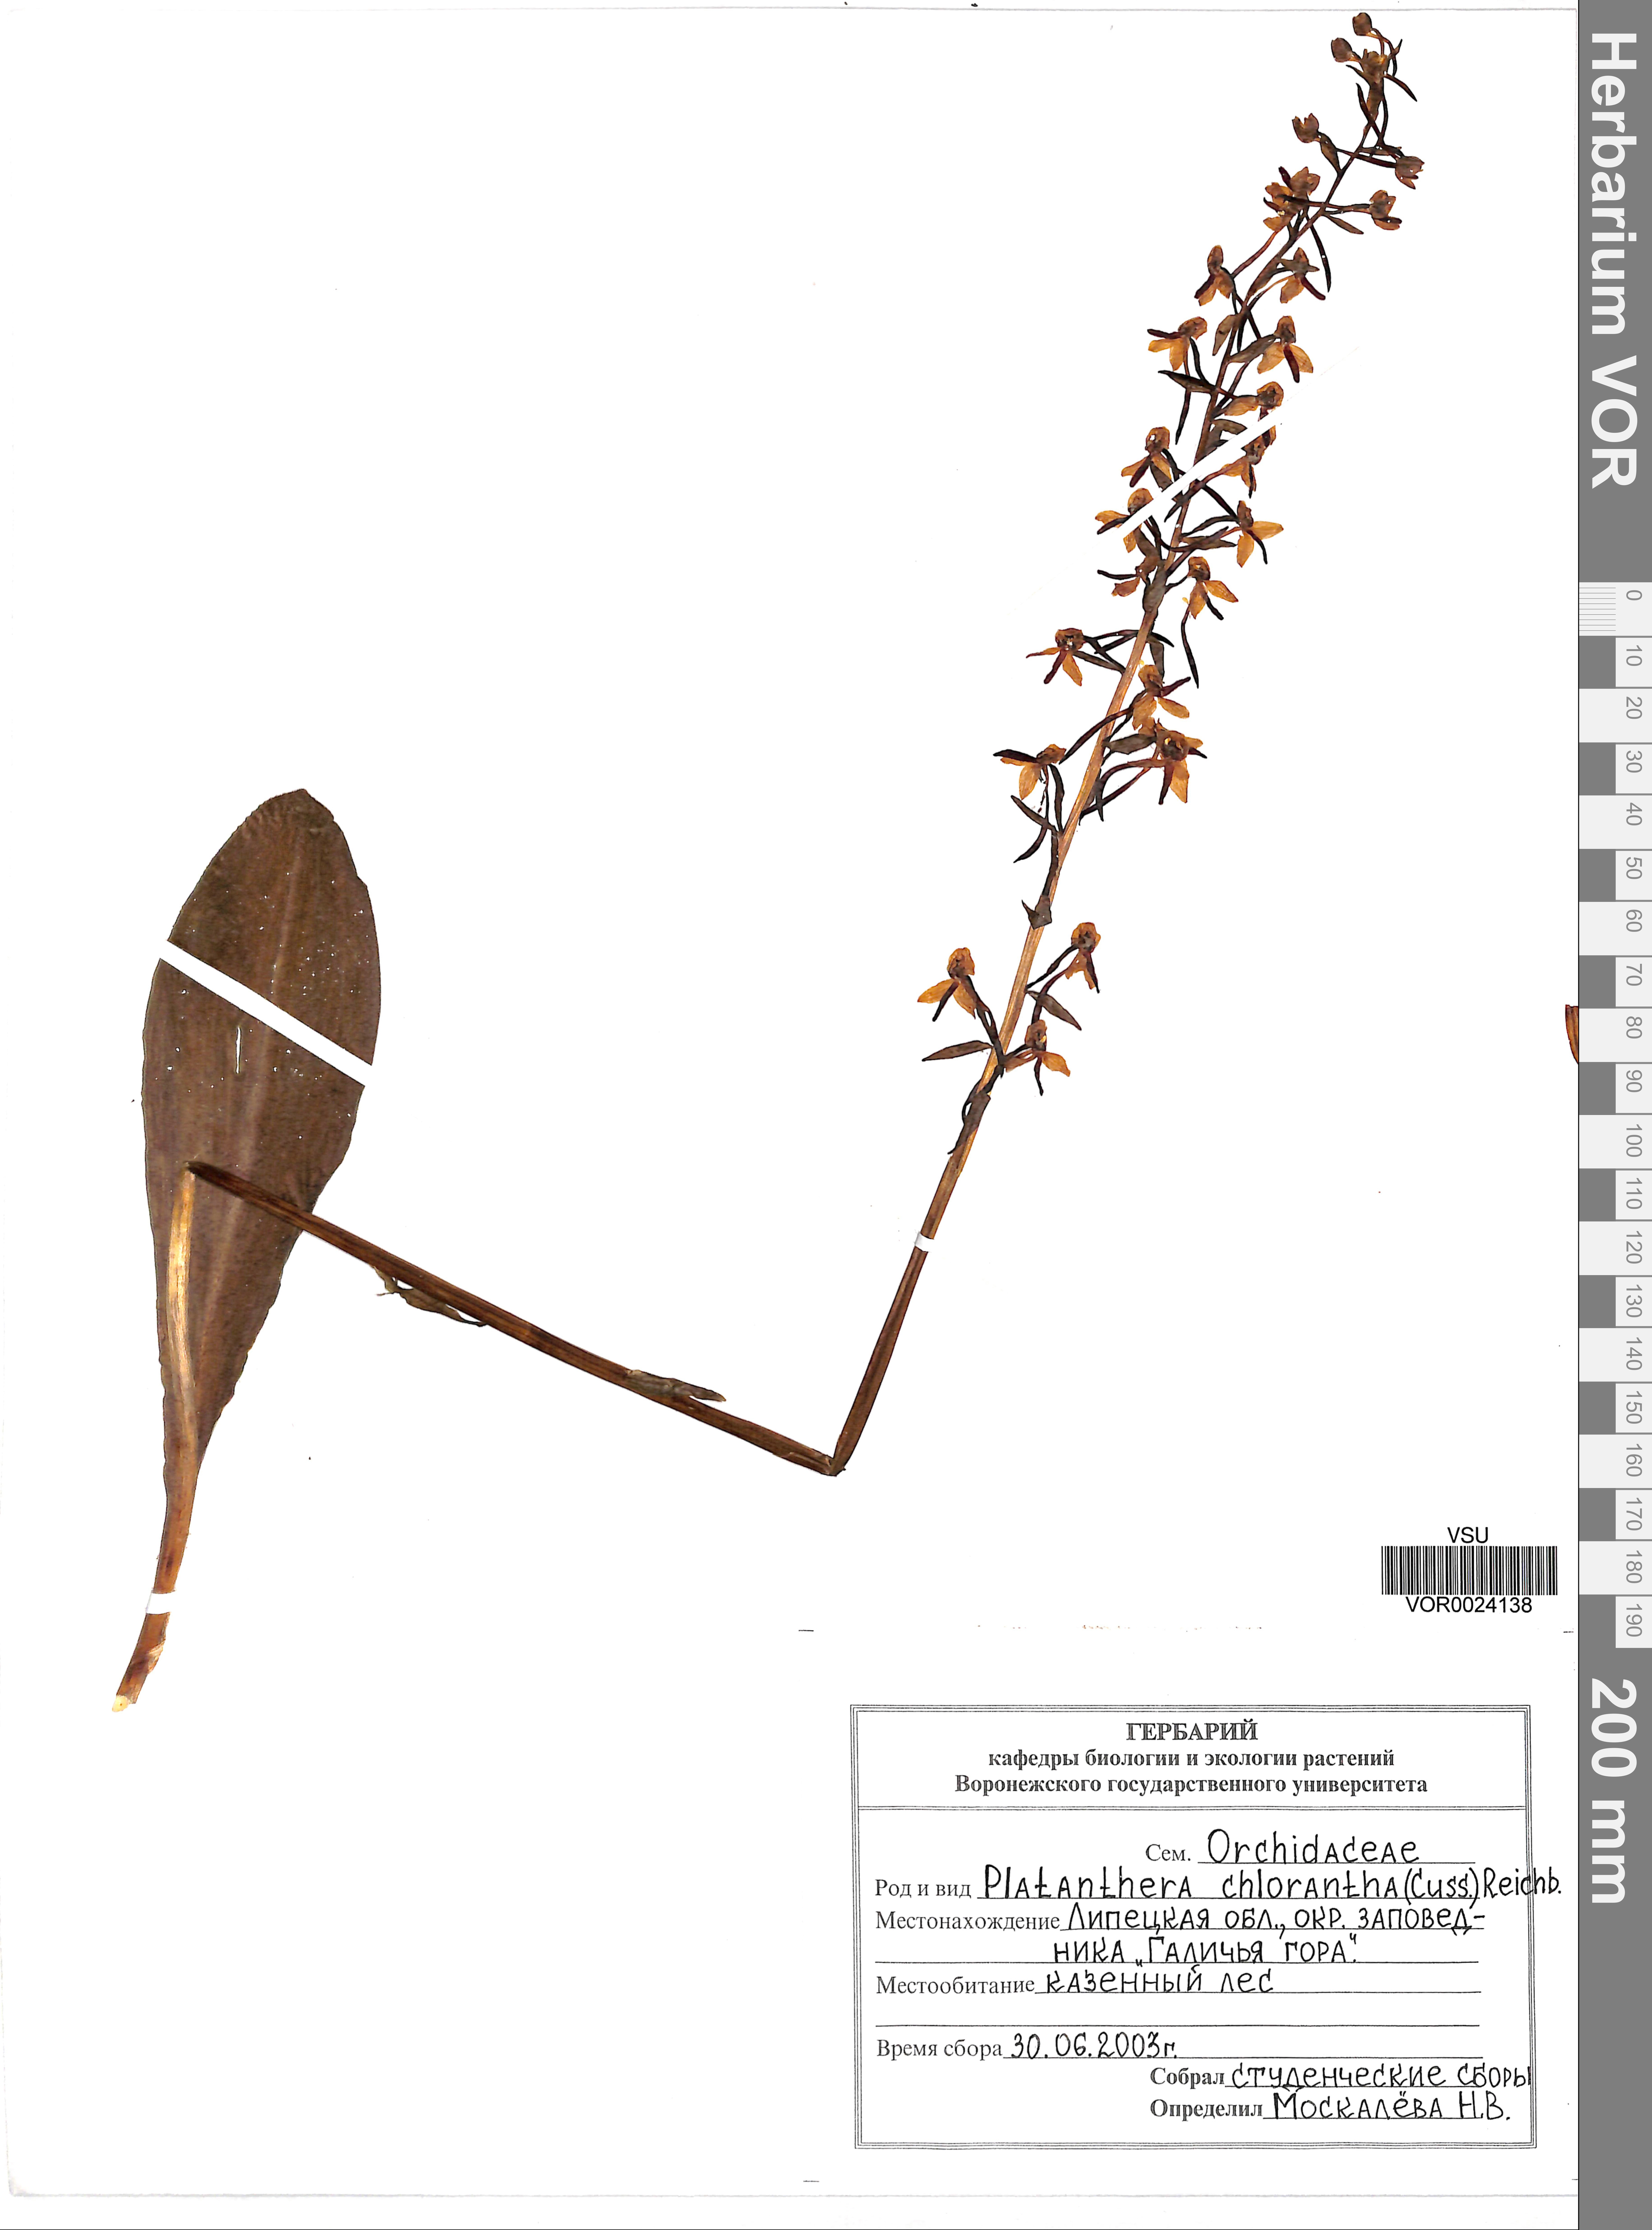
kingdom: Plantae
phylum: Tracheophyta
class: Liliopsida
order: Asparagales
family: Orchidaceae
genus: Platanthera
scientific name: Platanthera chlorantha
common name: Greater butterfly-orchid
